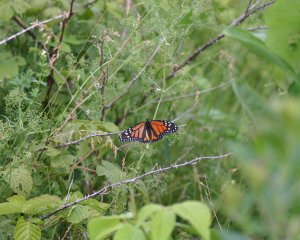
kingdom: Animalia
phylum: Arthropoda
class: Insecta
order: Lepidoptera
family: Nymphalidae
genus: Danaus
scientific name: Danaus plexippus
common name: Monarch
